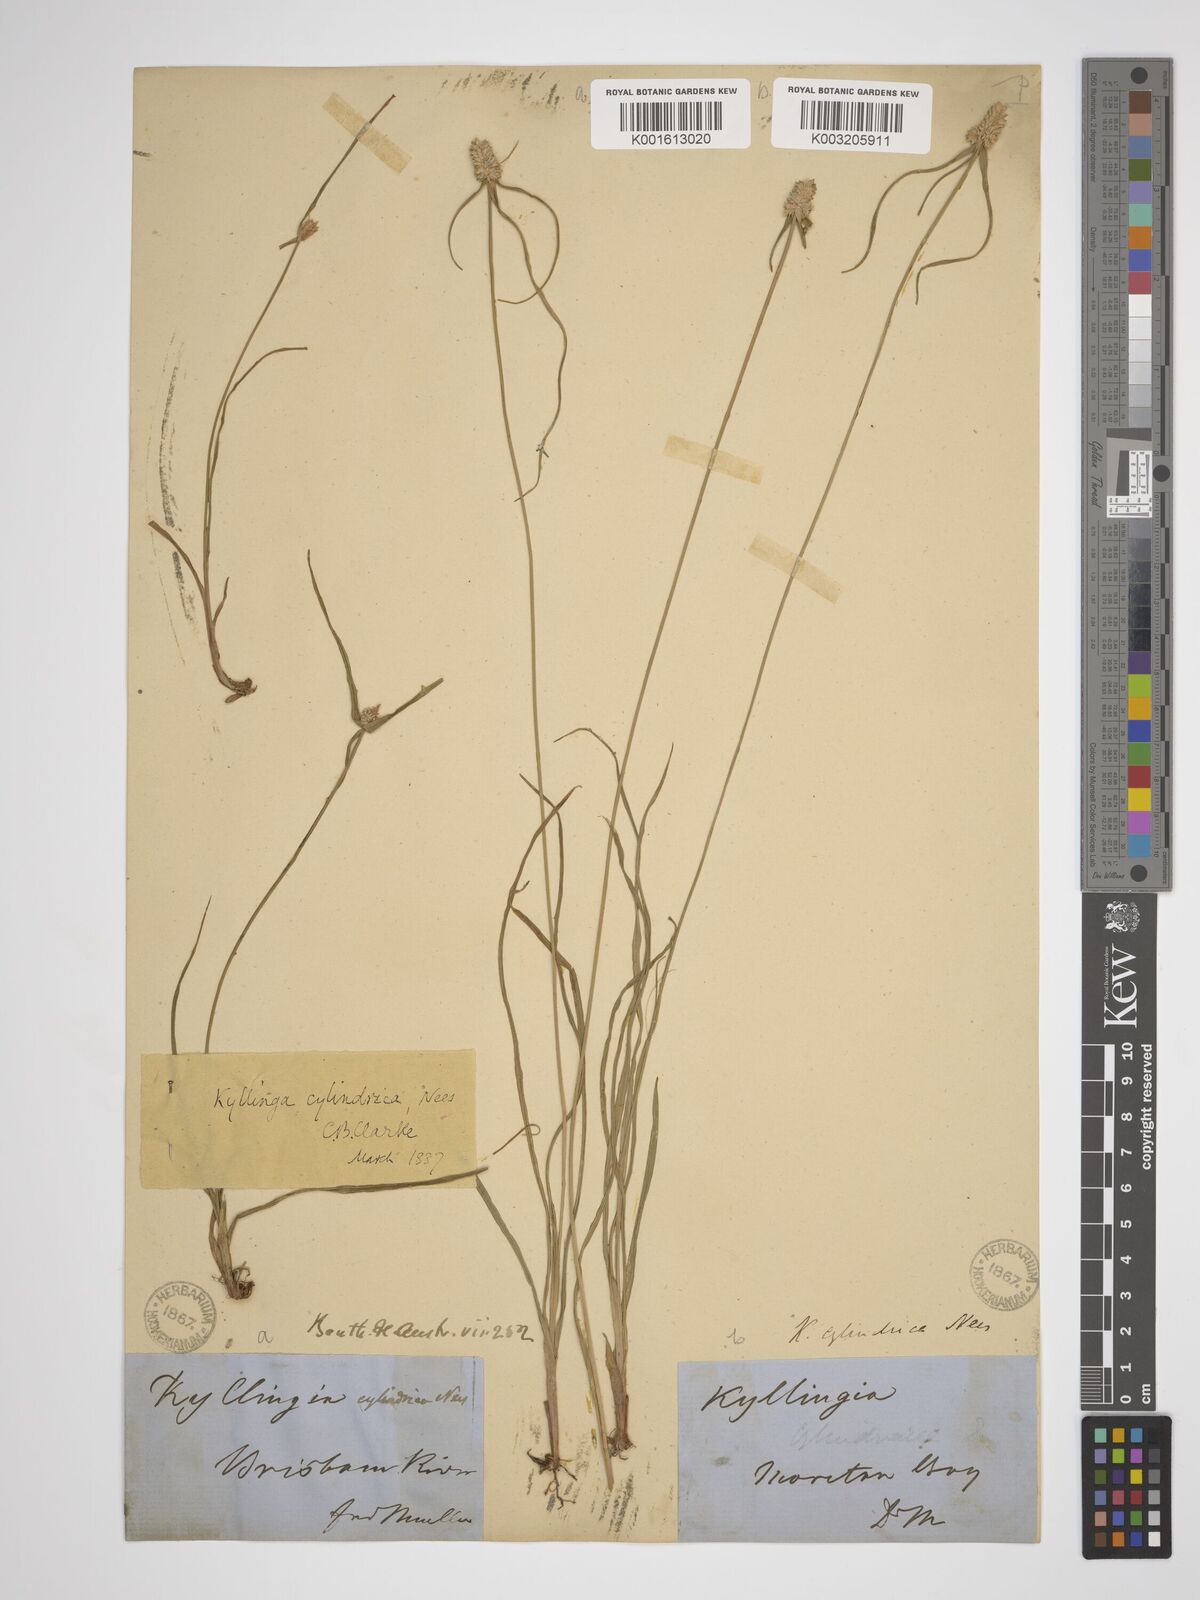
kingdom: Plantae
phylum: Tracheophyta
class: Liliopsida
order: Poales
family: Cyperaceae
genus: Cyperus
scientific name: Cyperus sesquiflorus
